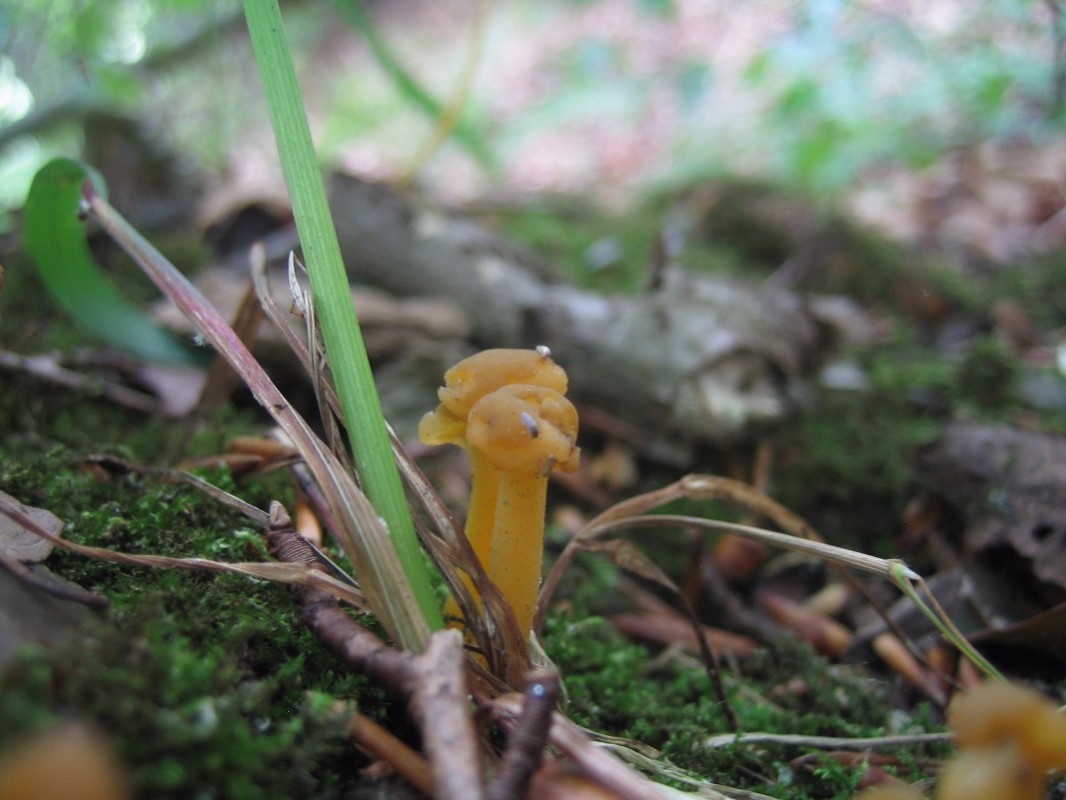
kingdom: Fungi
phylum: Ascomycota
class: Leotiomycetes
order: Leotiales
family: Leotiaceae
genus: Leotia
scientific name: Leotia
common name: ravsvamp
